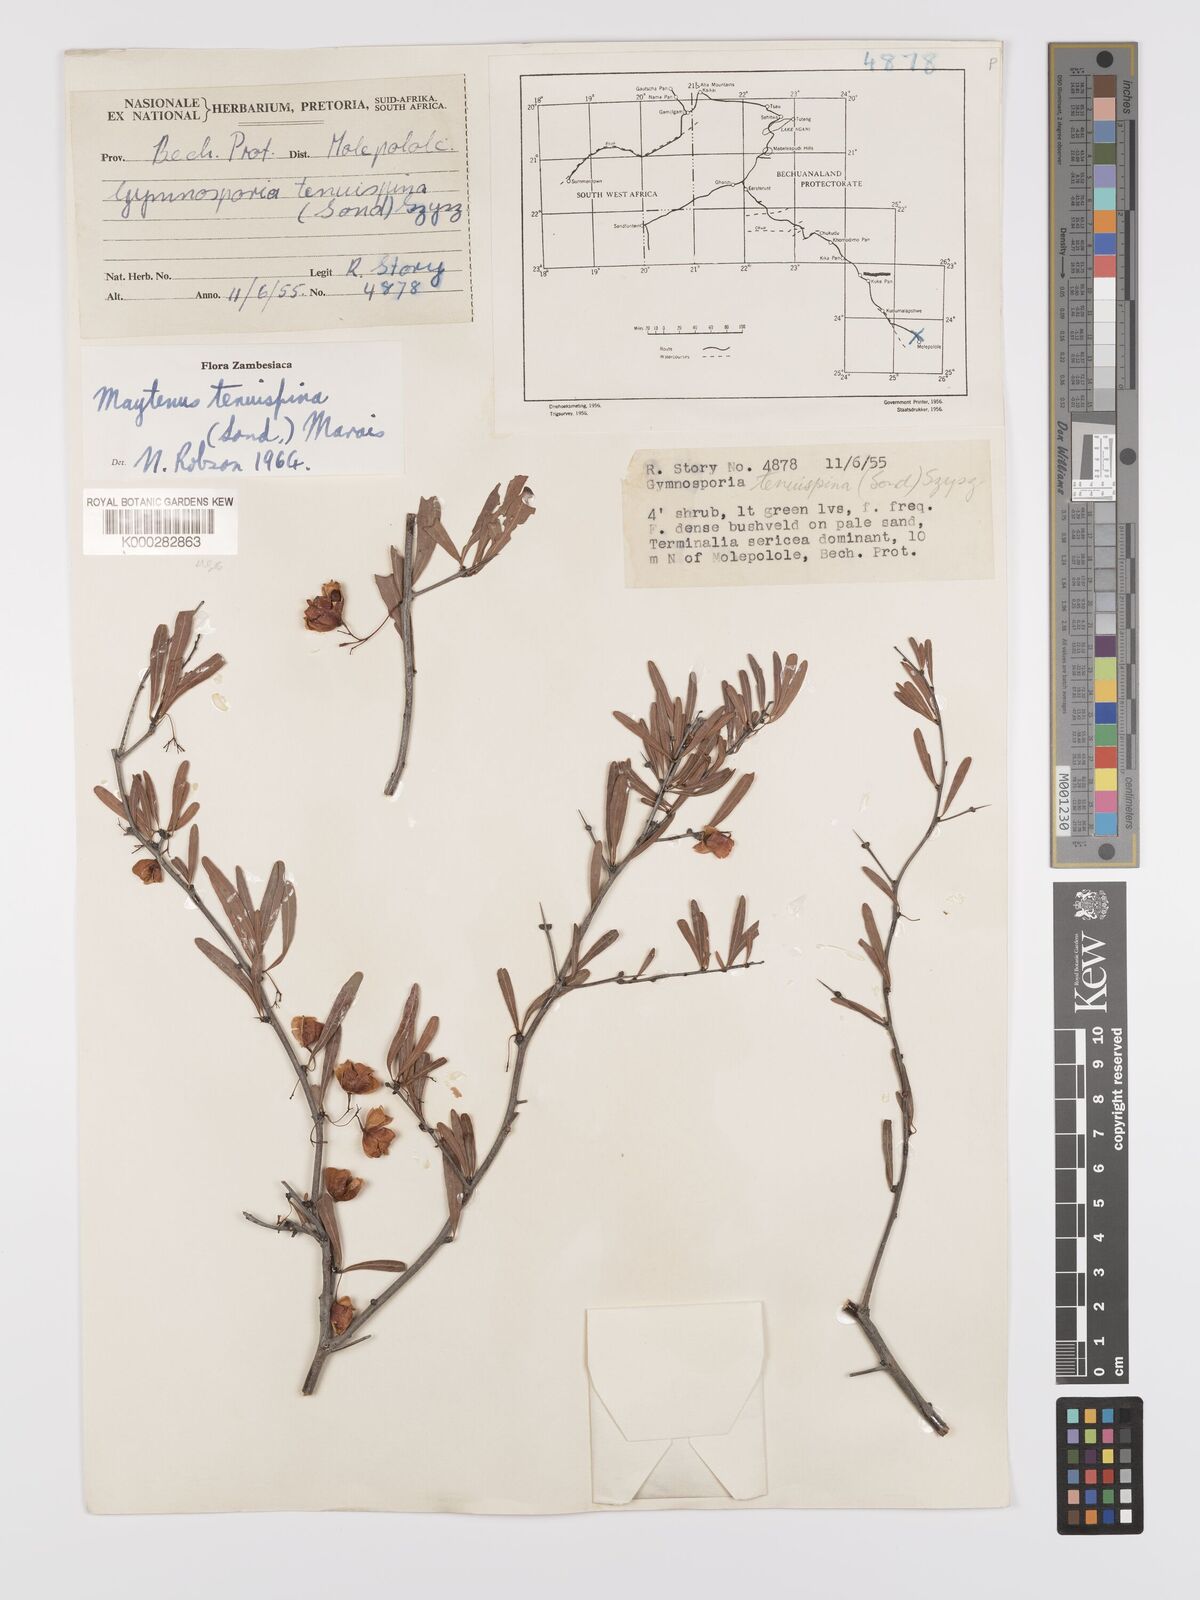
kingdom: Plantae
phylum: Tracheophyta
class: Magnoliopsida
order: Celastrales
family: Celastraceae
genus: Gymnosporia
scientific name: Gymnosporia tenuispina
